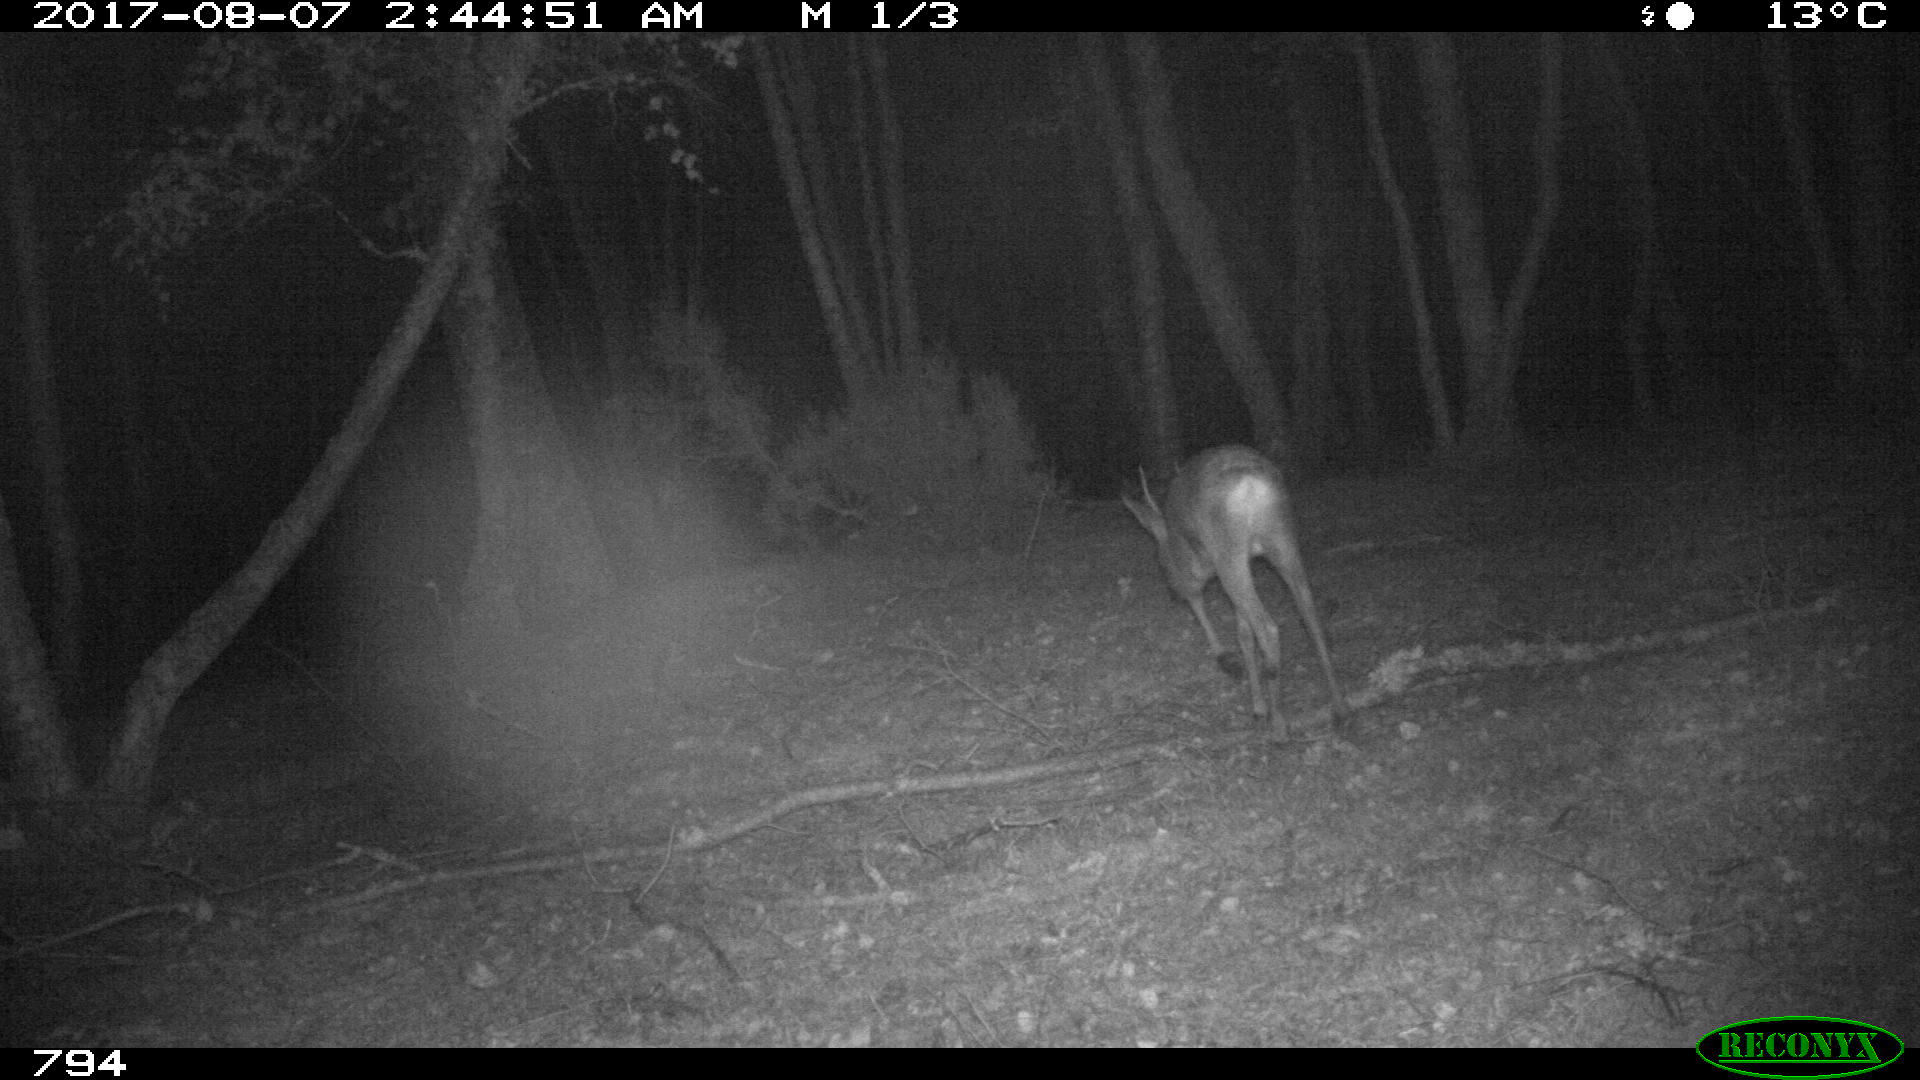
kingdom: Animalia
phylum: Chordata
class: Mammalia
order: Artiodactyla
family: Cervidae
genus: Capreolus
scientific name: Capreolus capreolus
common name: Western roe deer
